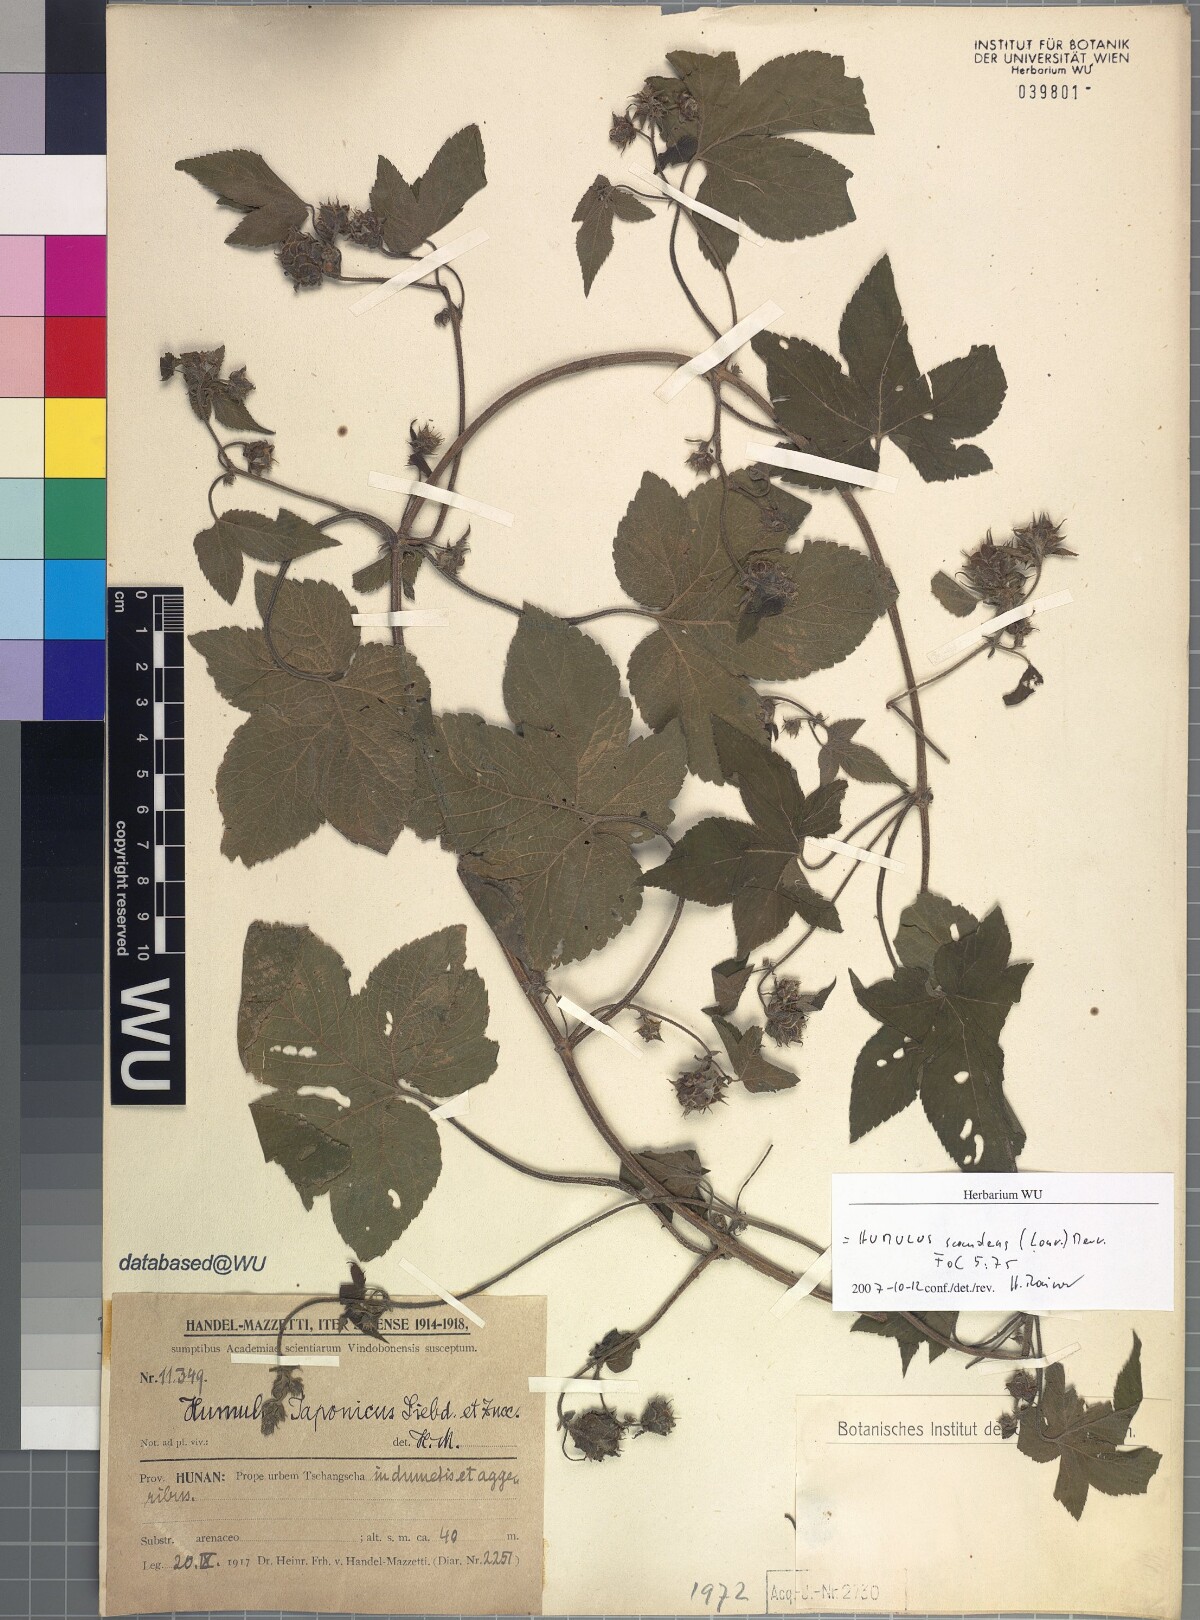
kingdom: Plantae
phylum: Tracheophyta
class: Magnoliopsida
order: Rosales
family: Cannabaceae
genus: Humulus
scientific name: Humulus scandens
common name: Japanese hop
